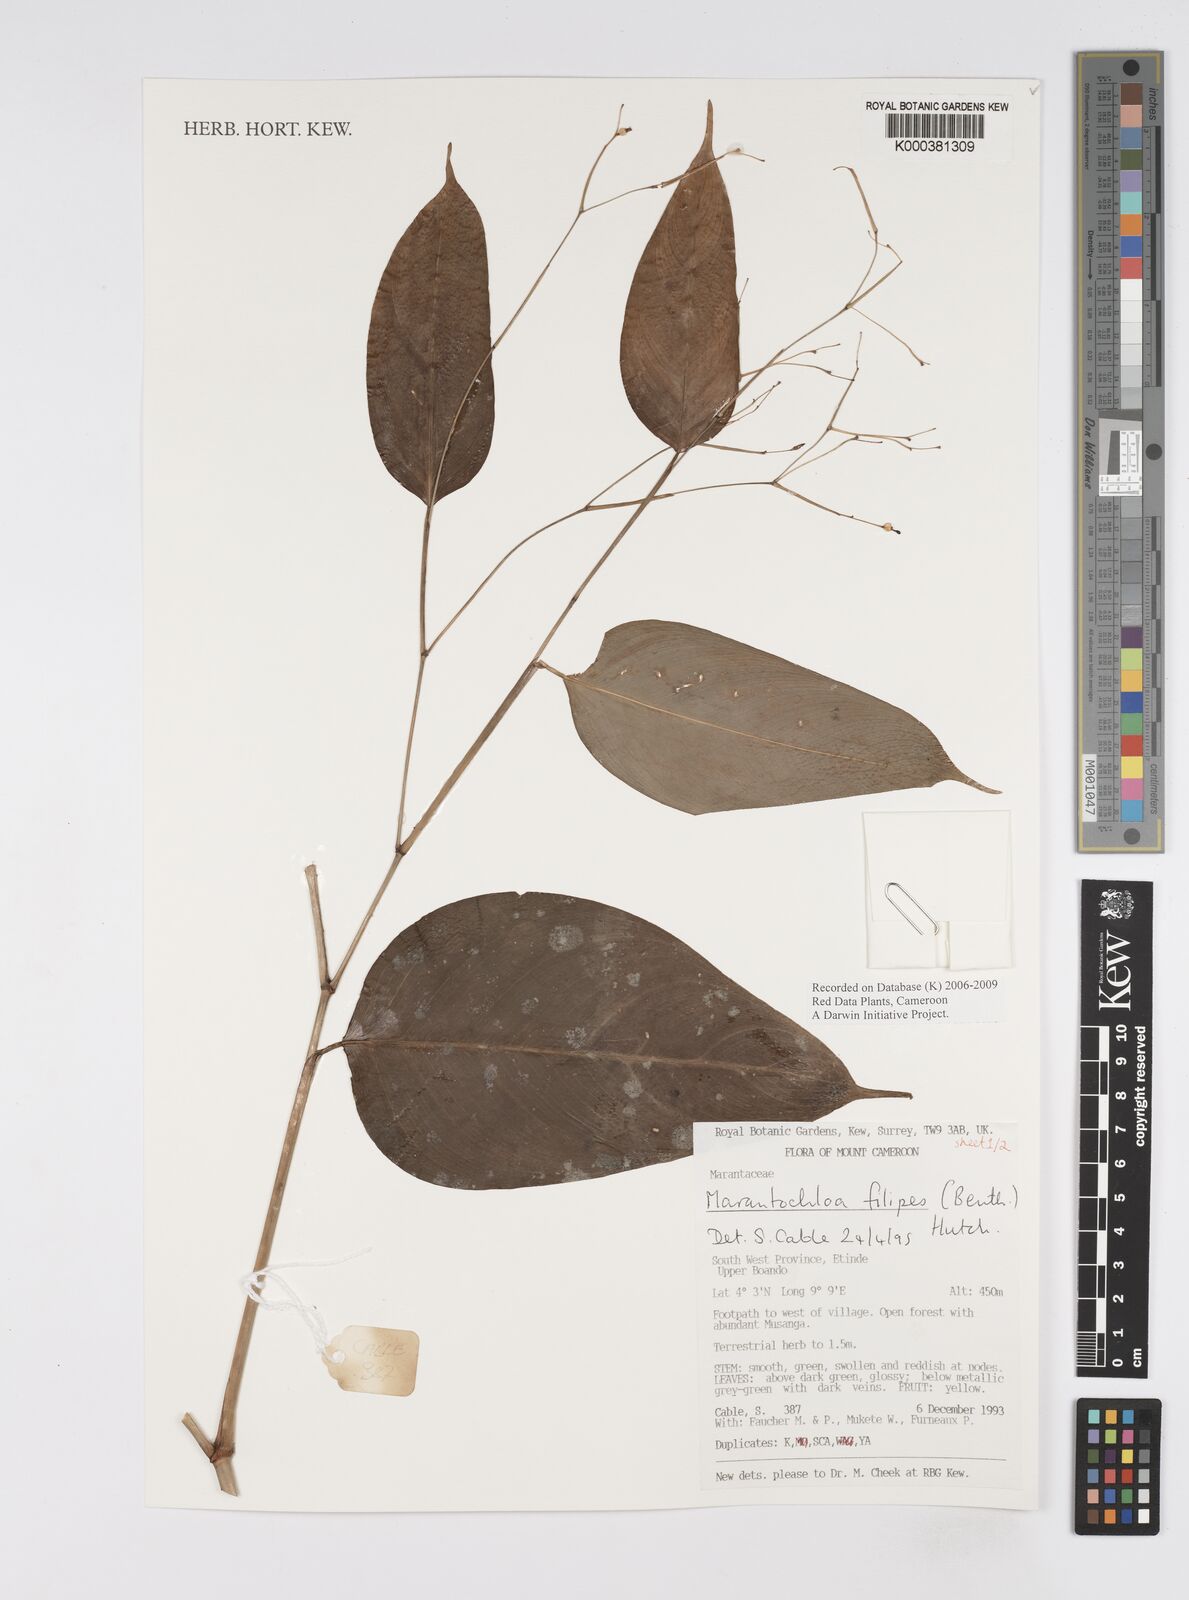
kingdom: Plantae
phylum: Tracheophyta
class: Liliopsida
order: Zingiberales
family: Marantaceae
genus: Marantochloa
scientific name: Marantochloa filipes
